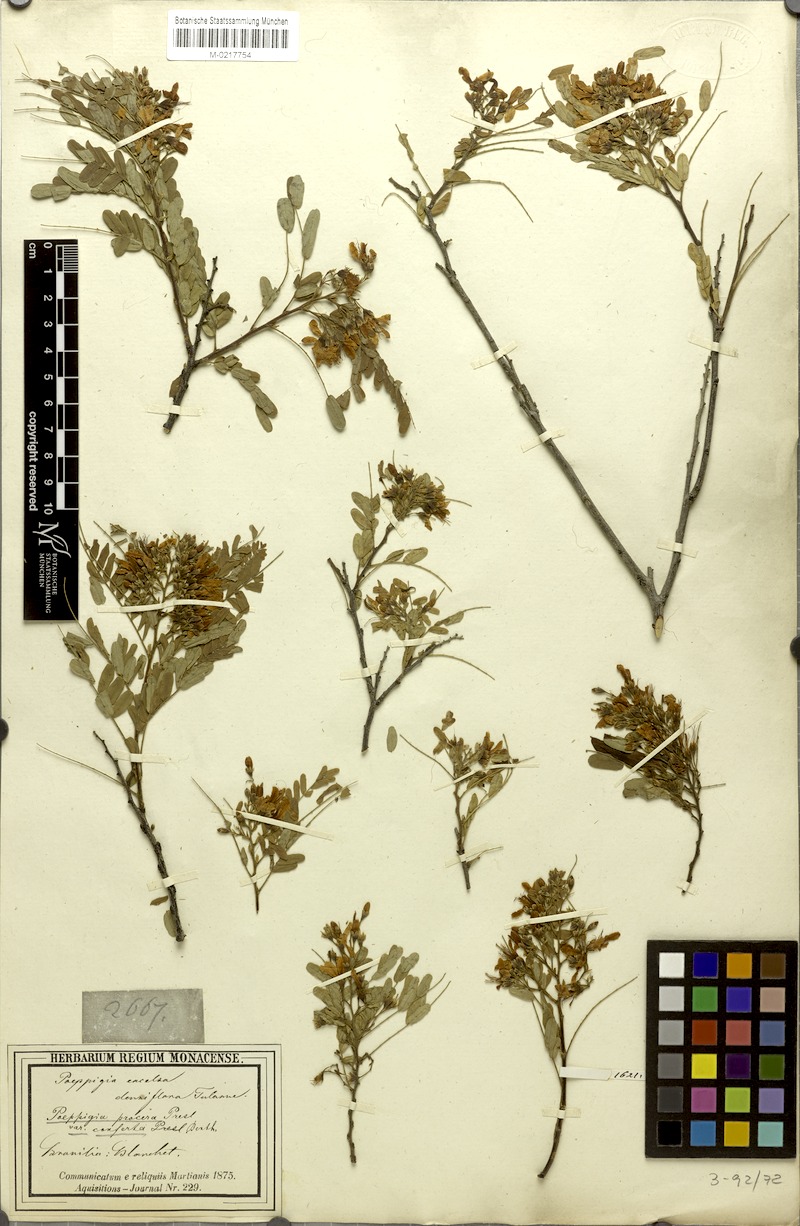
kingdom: Plantae
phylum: Tracheophyta
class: Magnoliopsida
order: Fabales
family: Fabaceae
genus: Acosmium
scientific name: Acosmium cardenasii
